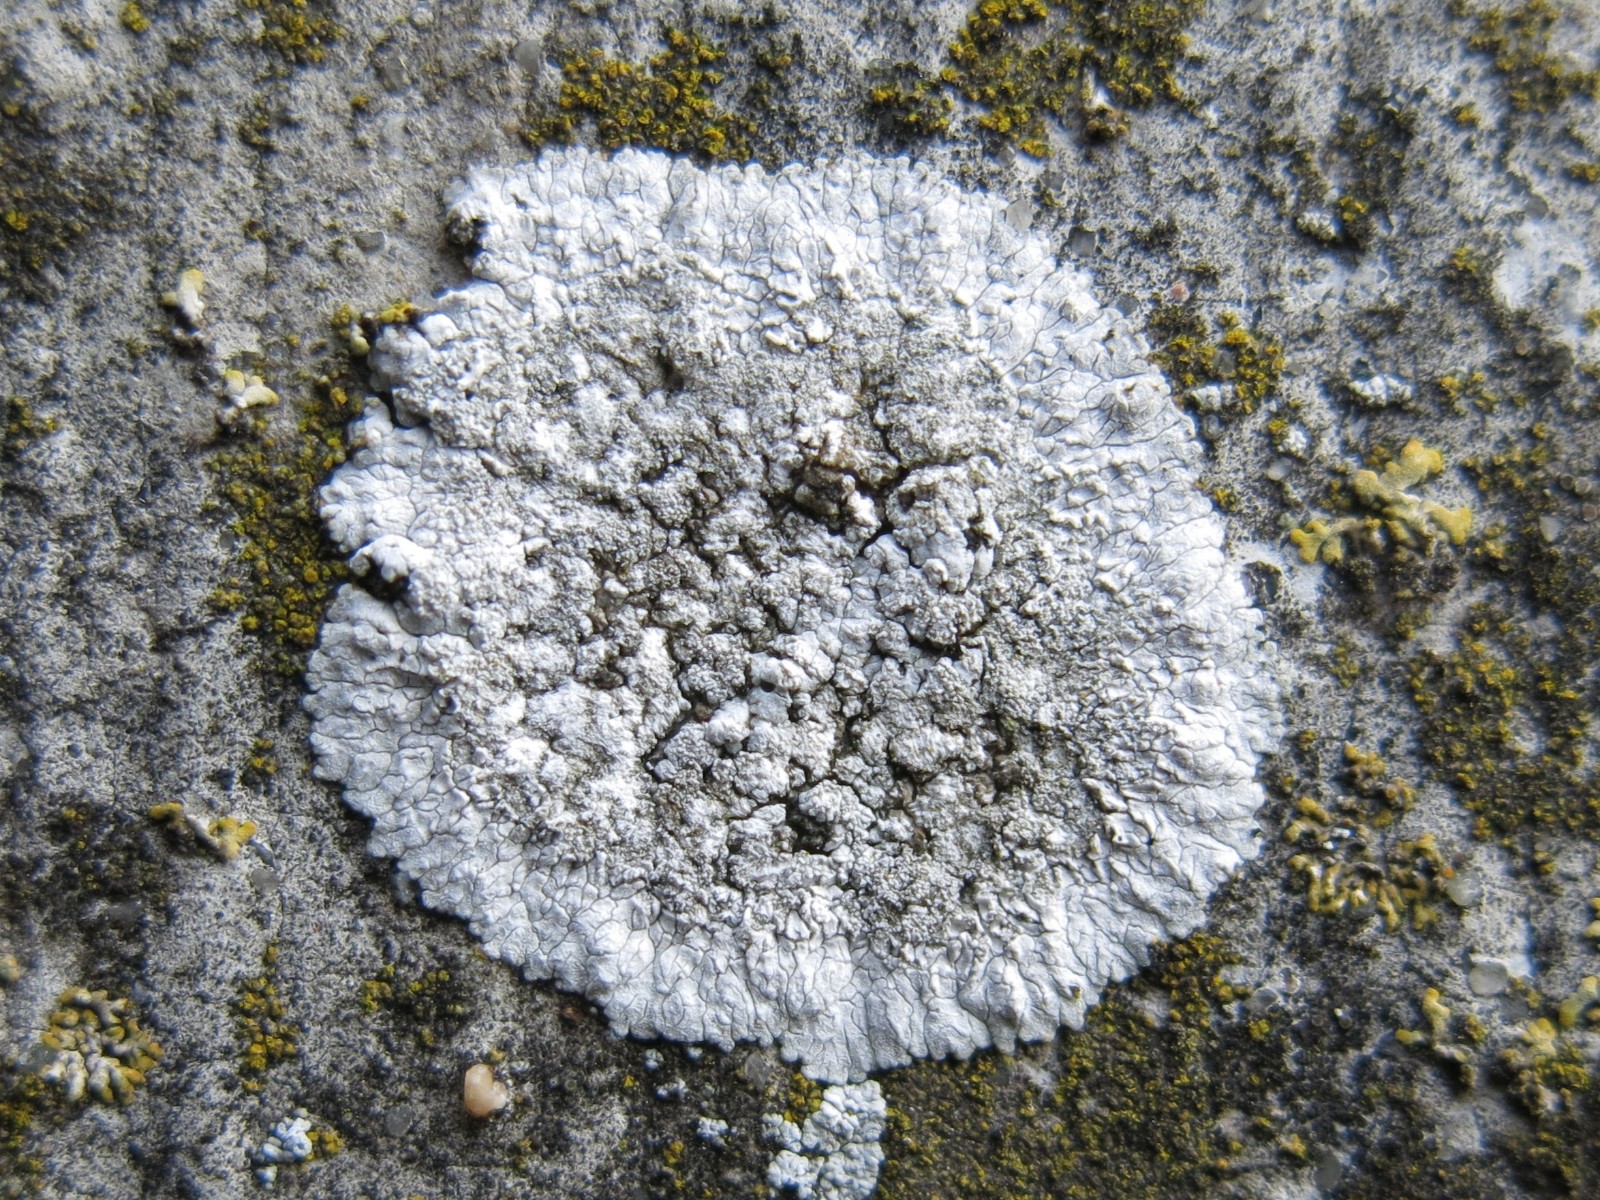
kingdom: Fungi
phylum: Ascomycota
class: Lecanoromycetes
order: Teloschistales
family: Teloschistaceae
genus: Kuettlingeria
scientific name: Kuettlingeria teicholyta
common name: grå orangelav
